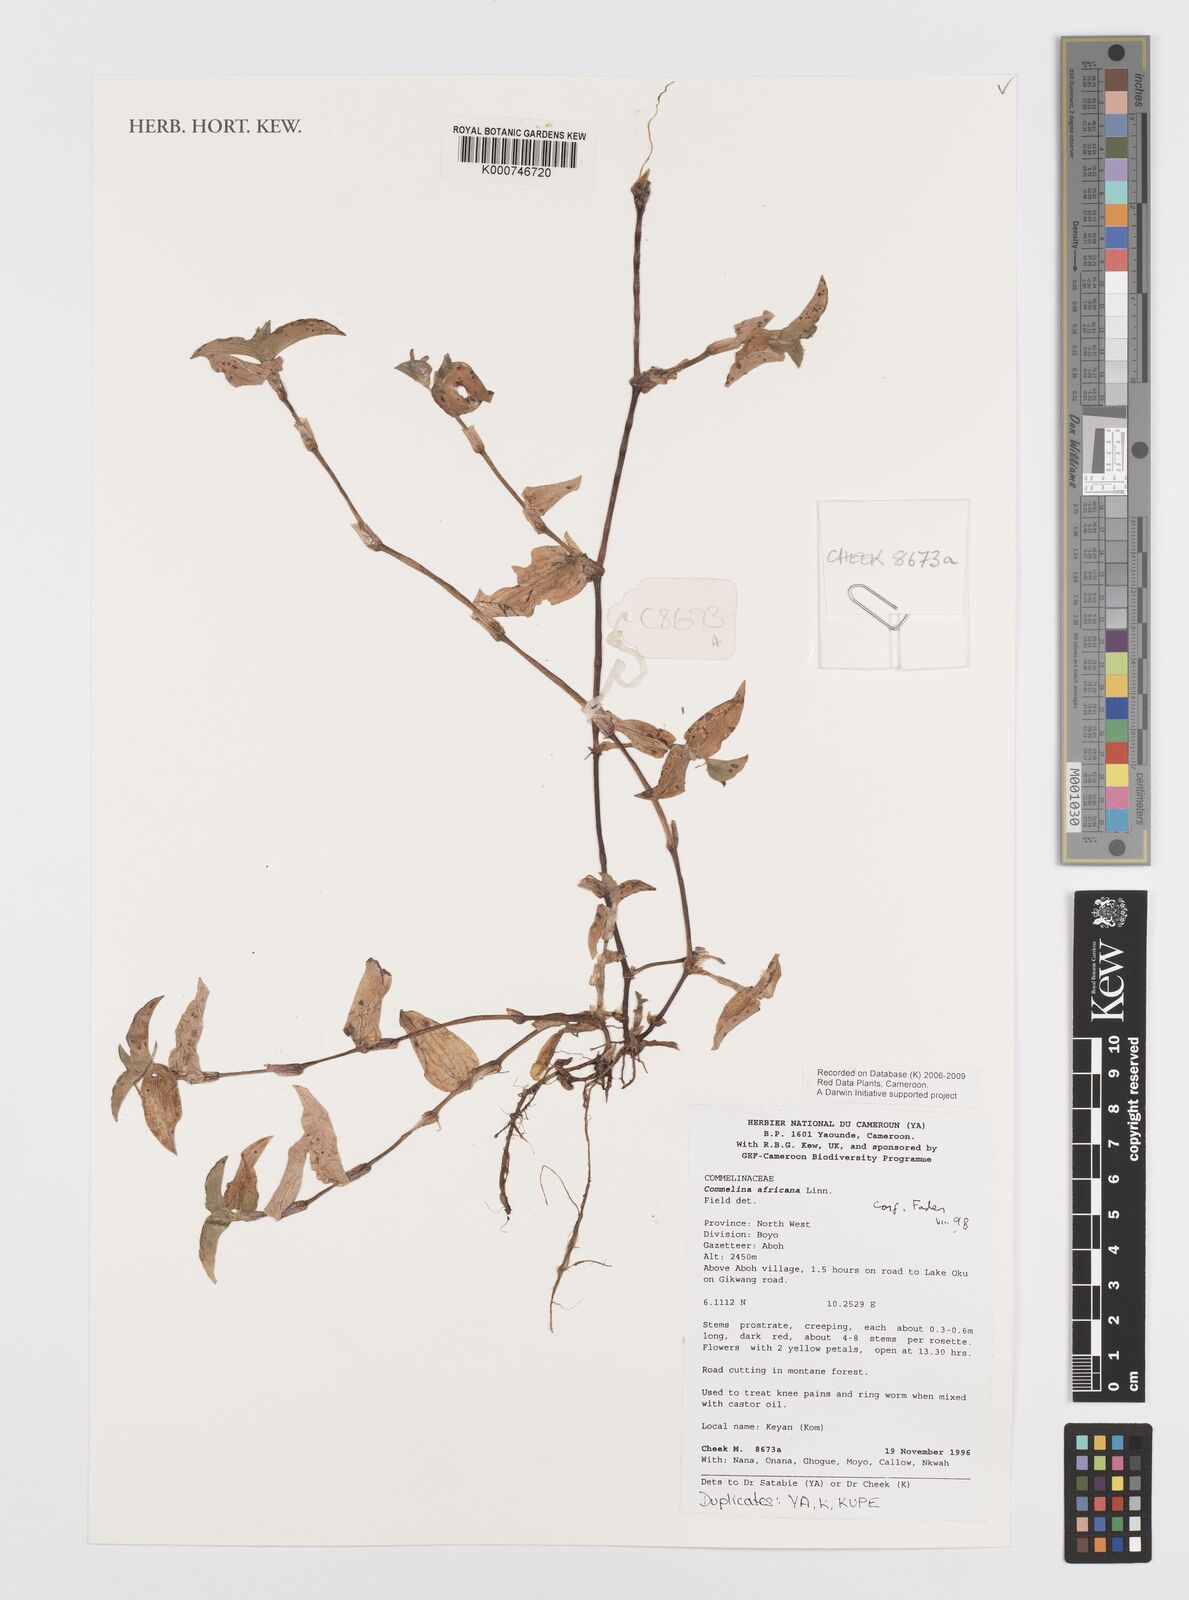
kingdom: Plantae
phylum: Tracheophyta
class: Liliopsida
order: Commelinales
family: Commelinaceae
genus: Commelina
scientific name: Commelina africana
